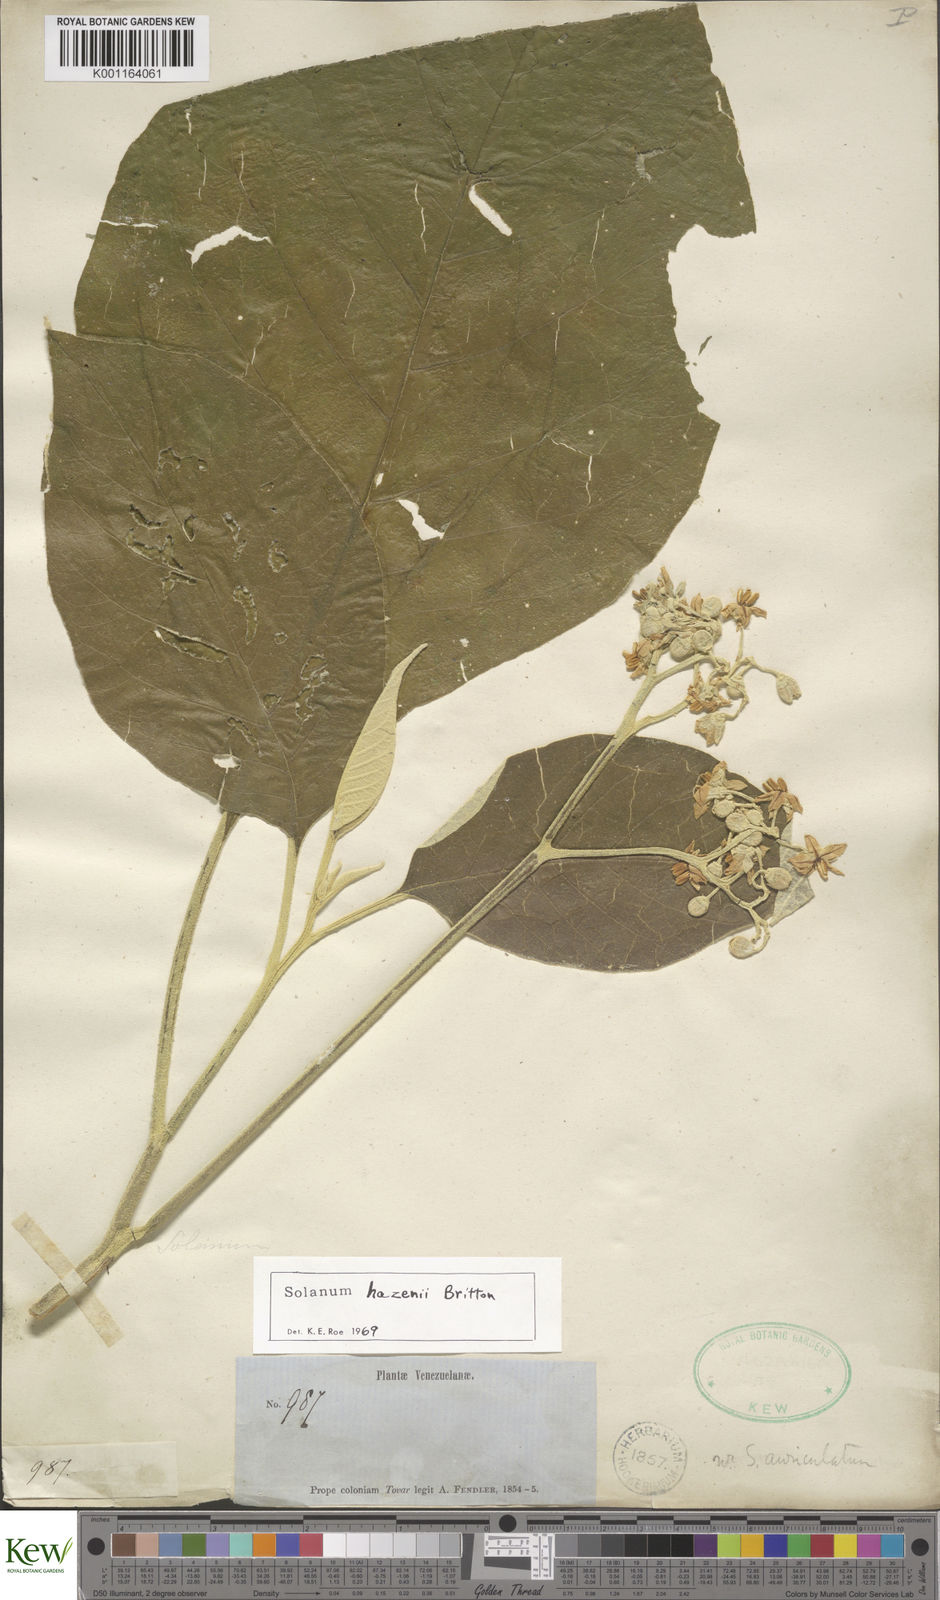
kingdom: Plantae
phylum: Tracheophyta
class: Magnoliopsida
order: Solanales
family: Solanaceae
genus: Solanum
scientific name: Solanum hazenii
